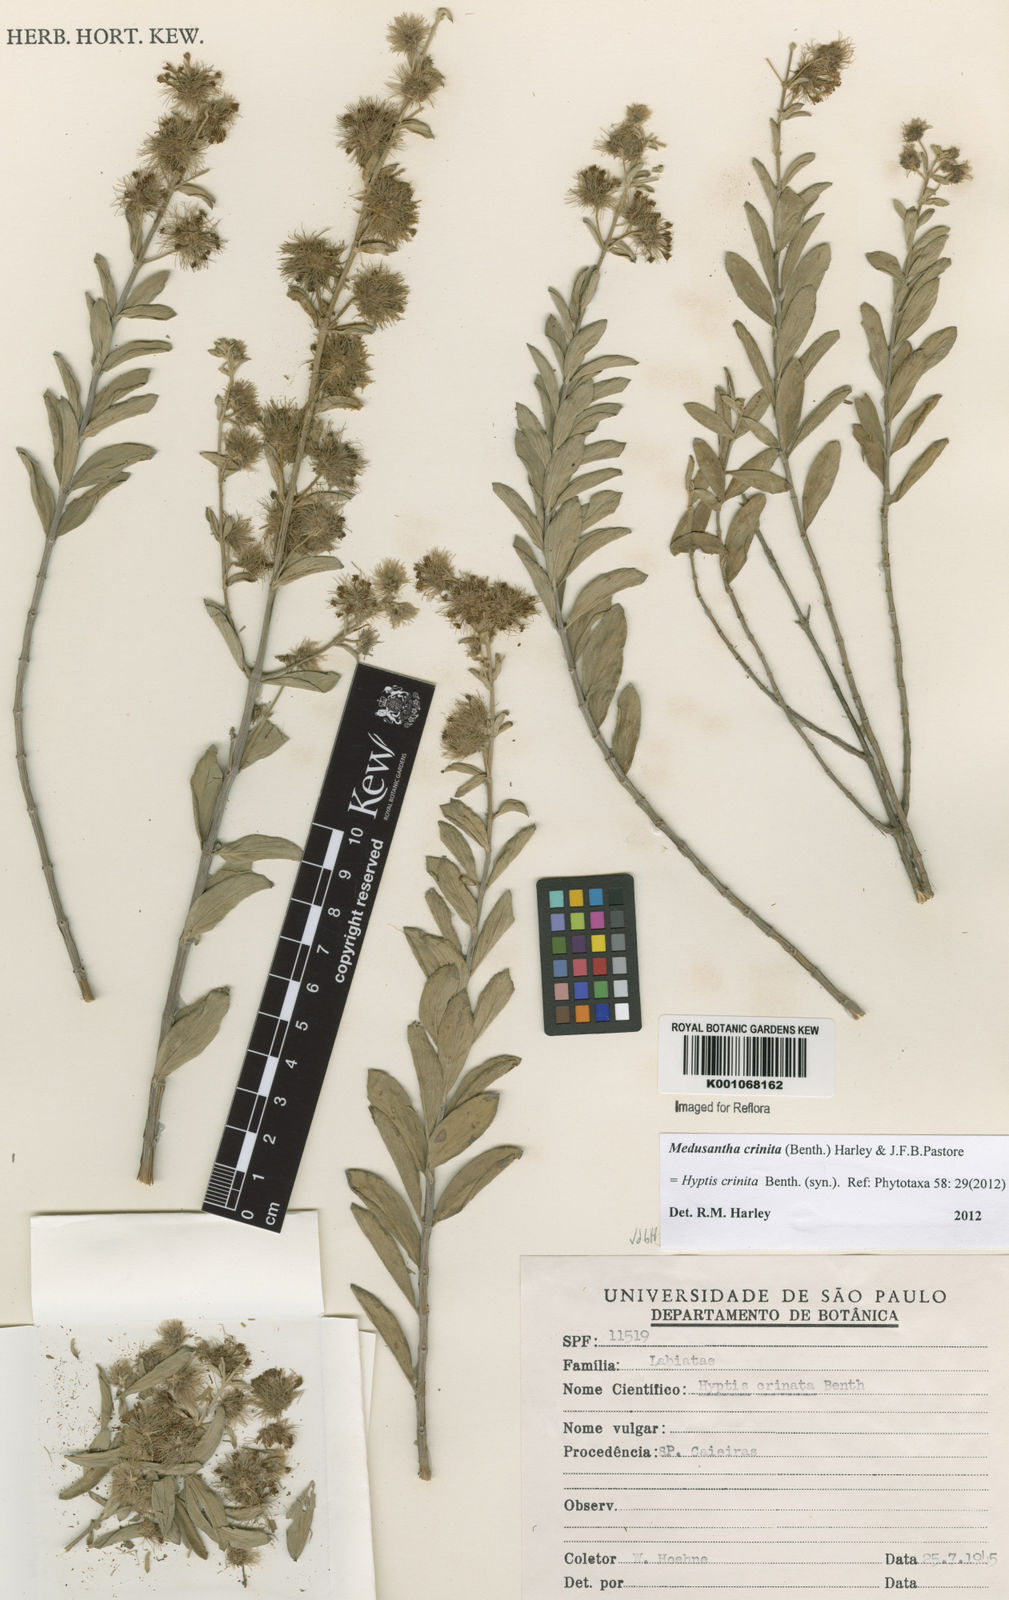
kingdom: Plantae
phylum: Tracheophyta
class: Magnoliopsida
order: Lamiales
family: Lamiaceae
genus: Medusantha
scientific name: Medusantha crinita
